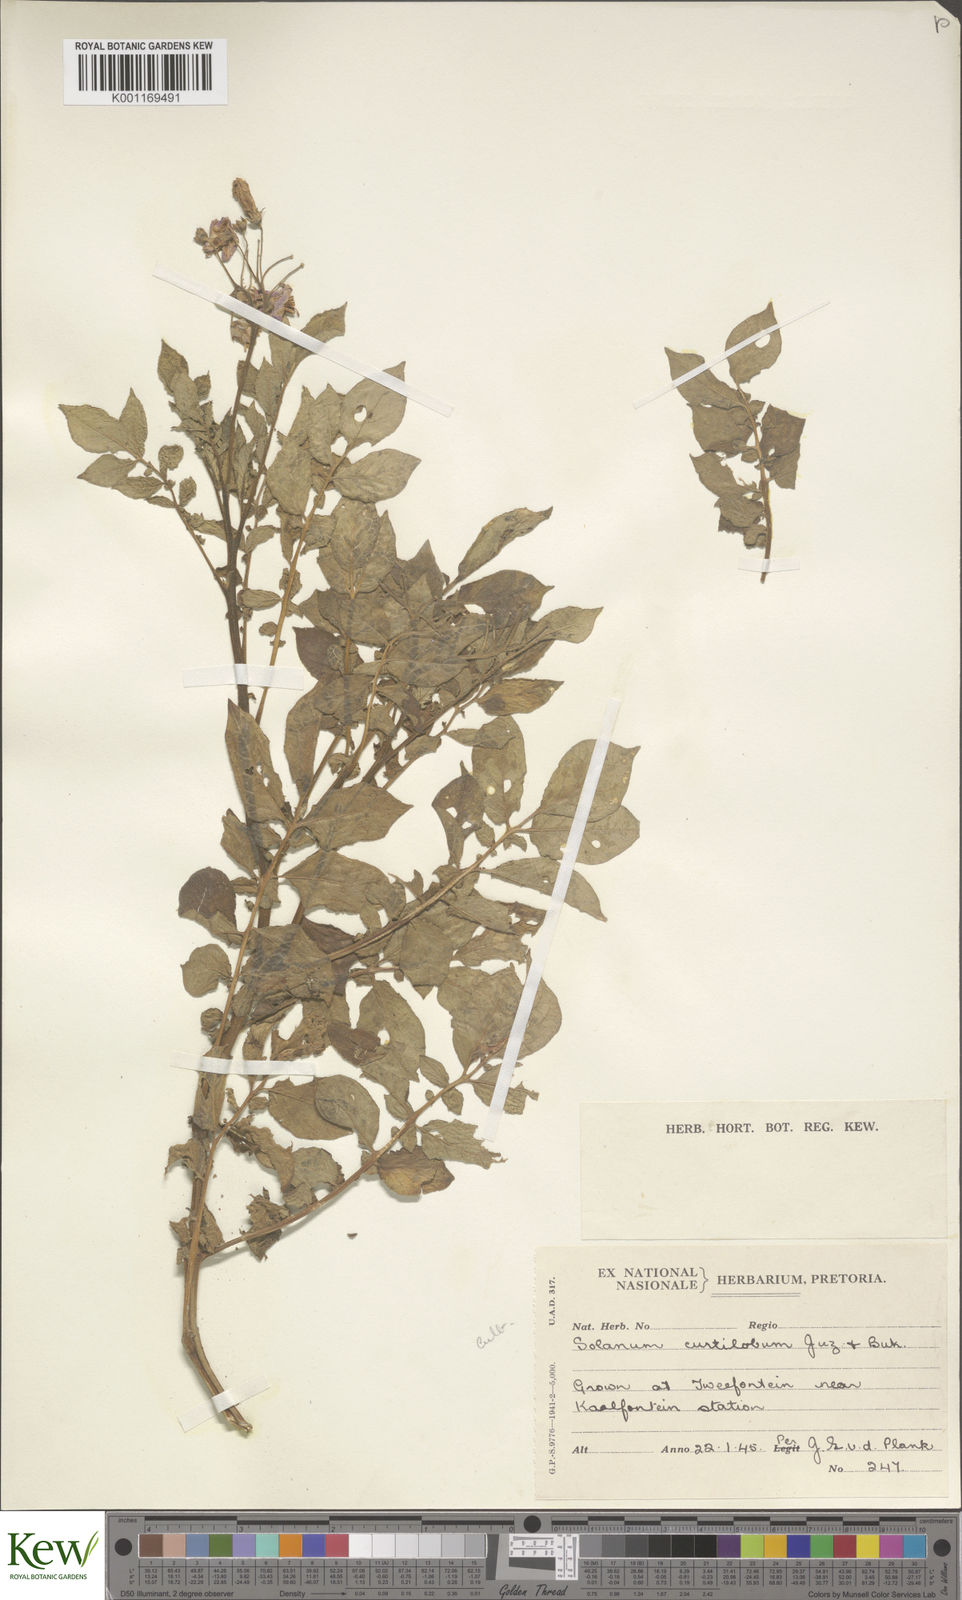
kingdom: Plantae
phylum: Tracheophyta
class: Magnoliopsida
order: Solanales
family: Solanaceae
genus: Solanum
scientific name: Solanum curtilobum
